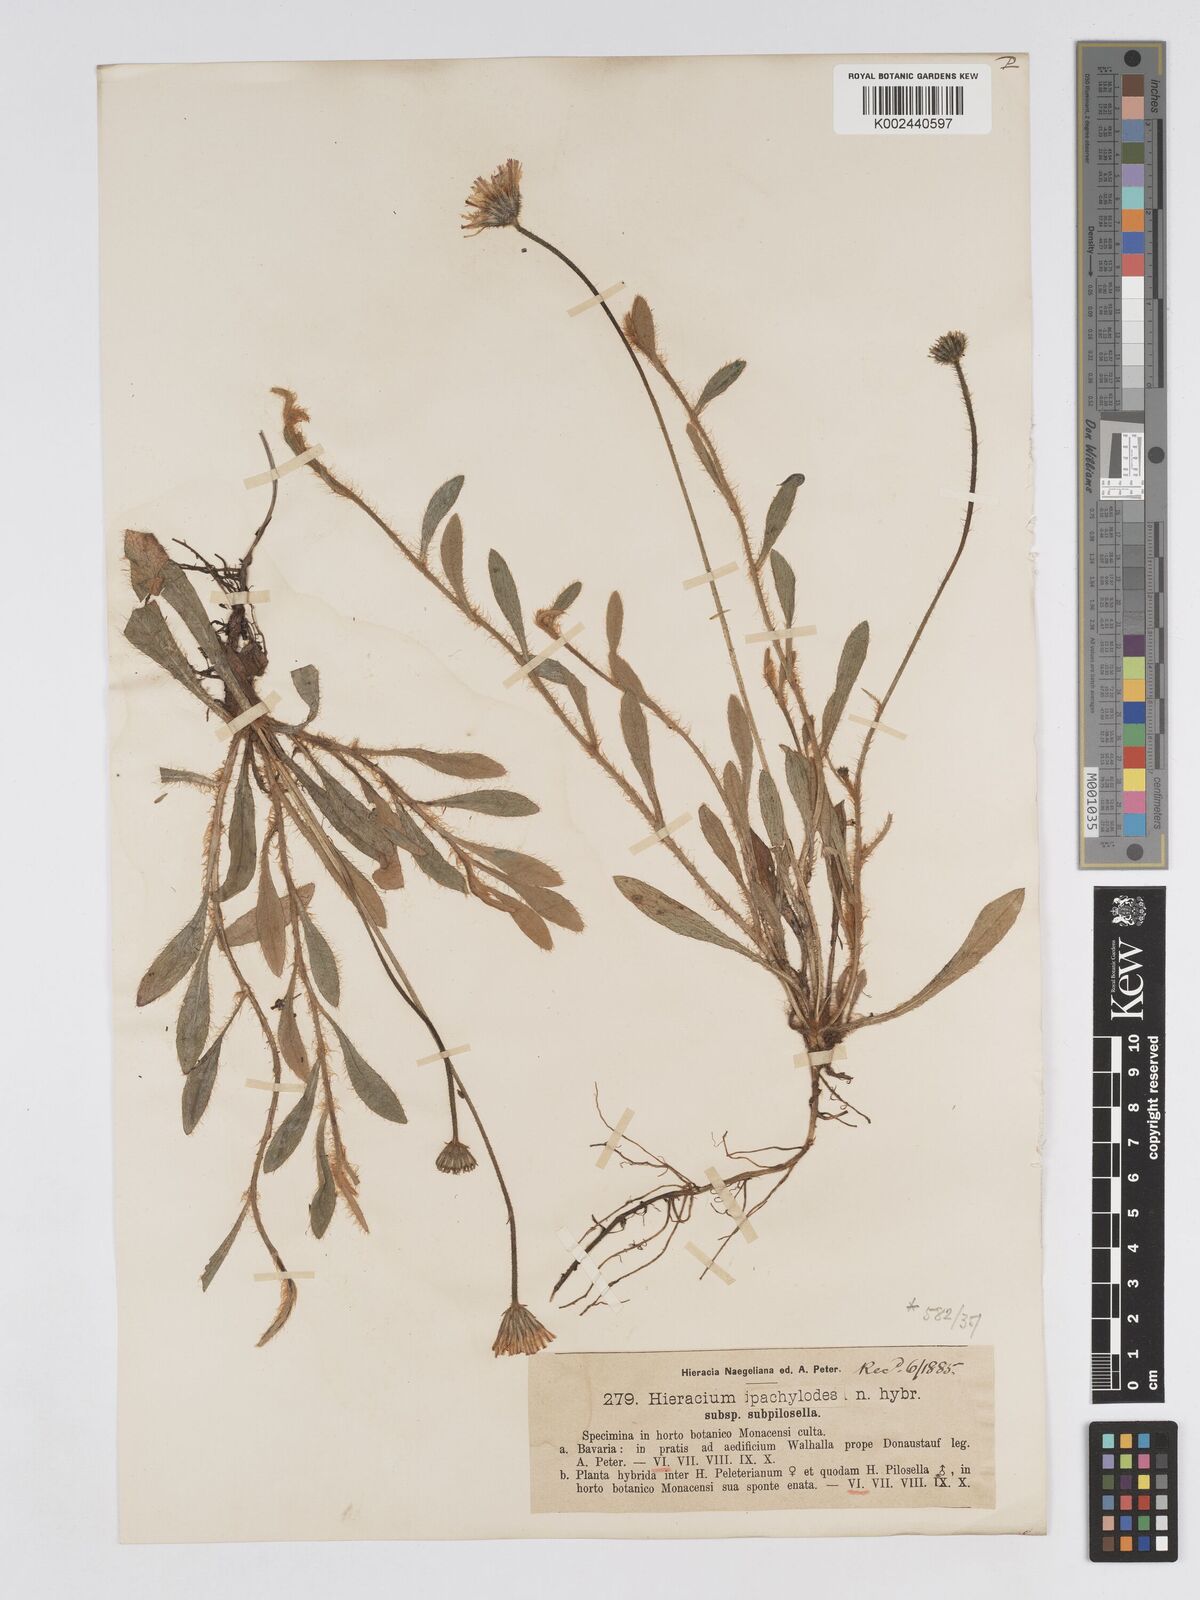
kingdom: Plantae
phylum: Tracheophyta
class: Magnoliopsida
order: Asterales
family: Asteraceae
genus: Pilosella
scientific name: Pilosella longisquama
